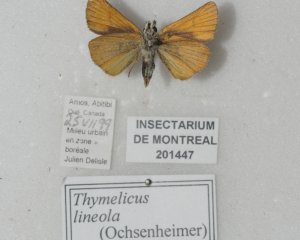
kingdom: Animalia
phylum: Arthropoda
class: Insecta
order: Lepidoptera
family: Hesperiidae
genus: Thymelicus
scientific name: Thymelicus lineola
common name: European Skipper
